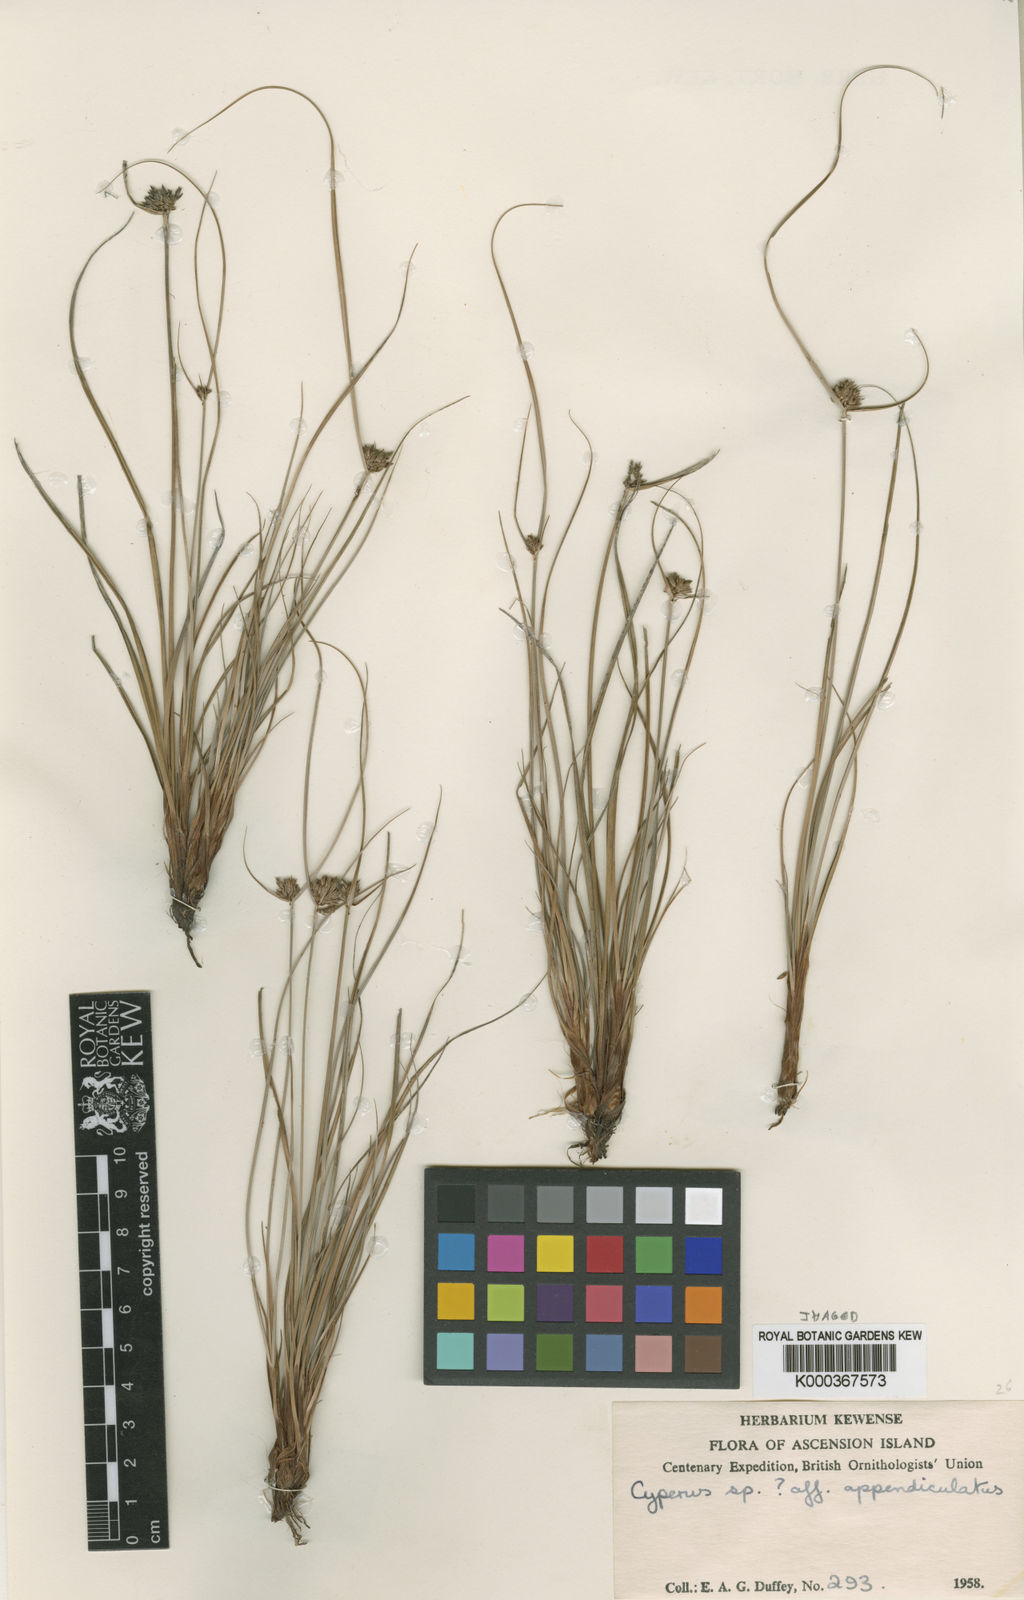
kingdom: Plantae
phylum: Tracheophyta
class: Liliopsida
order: Poales
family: Cyperaceae
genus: Cyperus
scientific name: Cyperus appendiculatus
